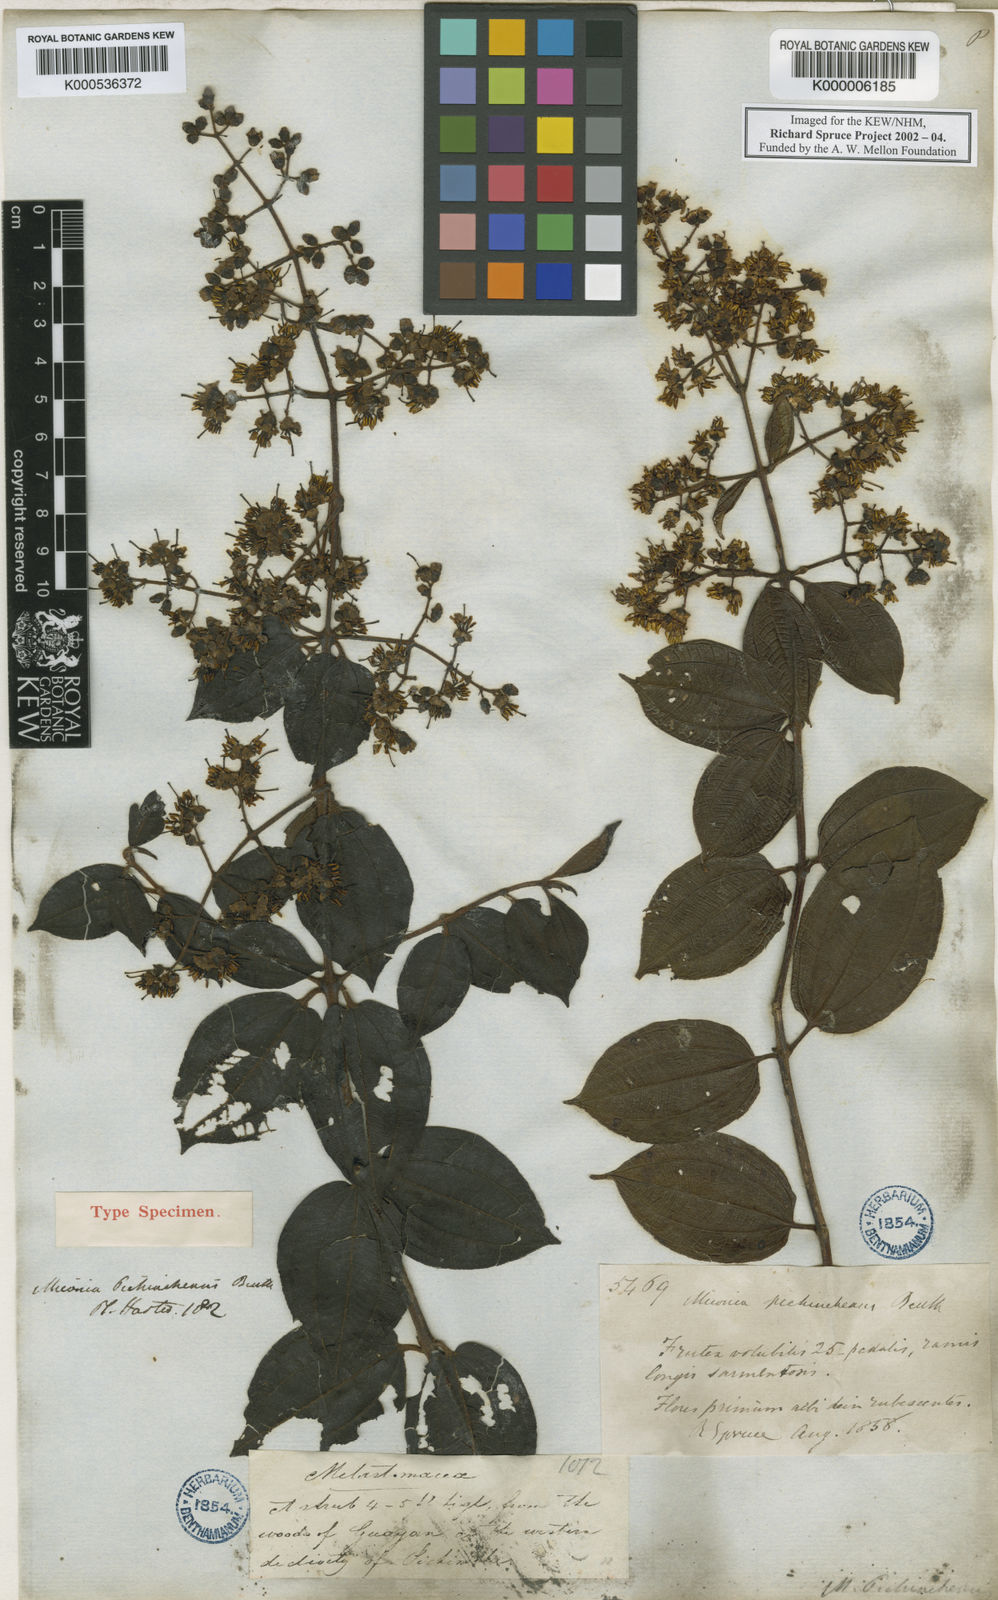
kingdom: Plantae
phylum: Tracheophyta
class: Magnoliopsida
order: Myrtales
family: Melastomataceae
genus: Miconia
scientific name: Miconia pichinchensis
